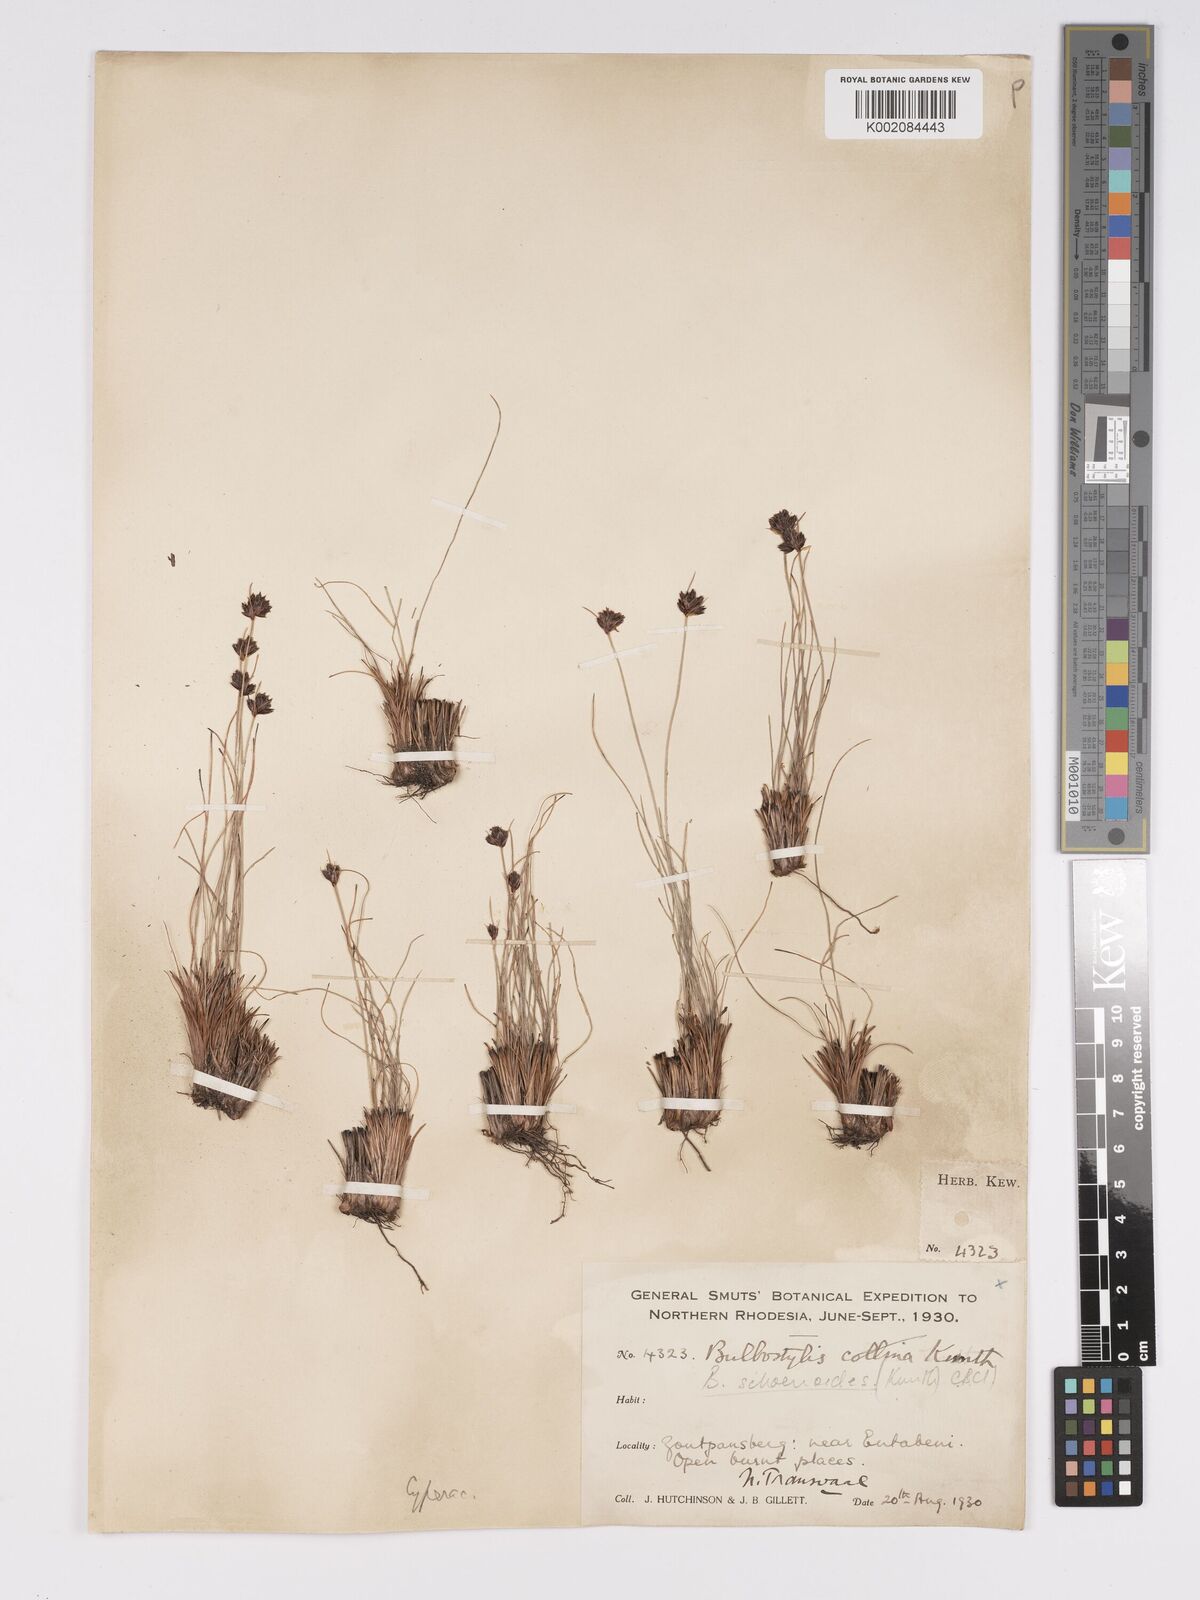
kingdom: Plantae
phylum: Tracheophyta
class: Liliopsida
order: Poales
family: Cyperaceae
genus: Bulbostylis
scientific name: Bulbostylis schoenoides
